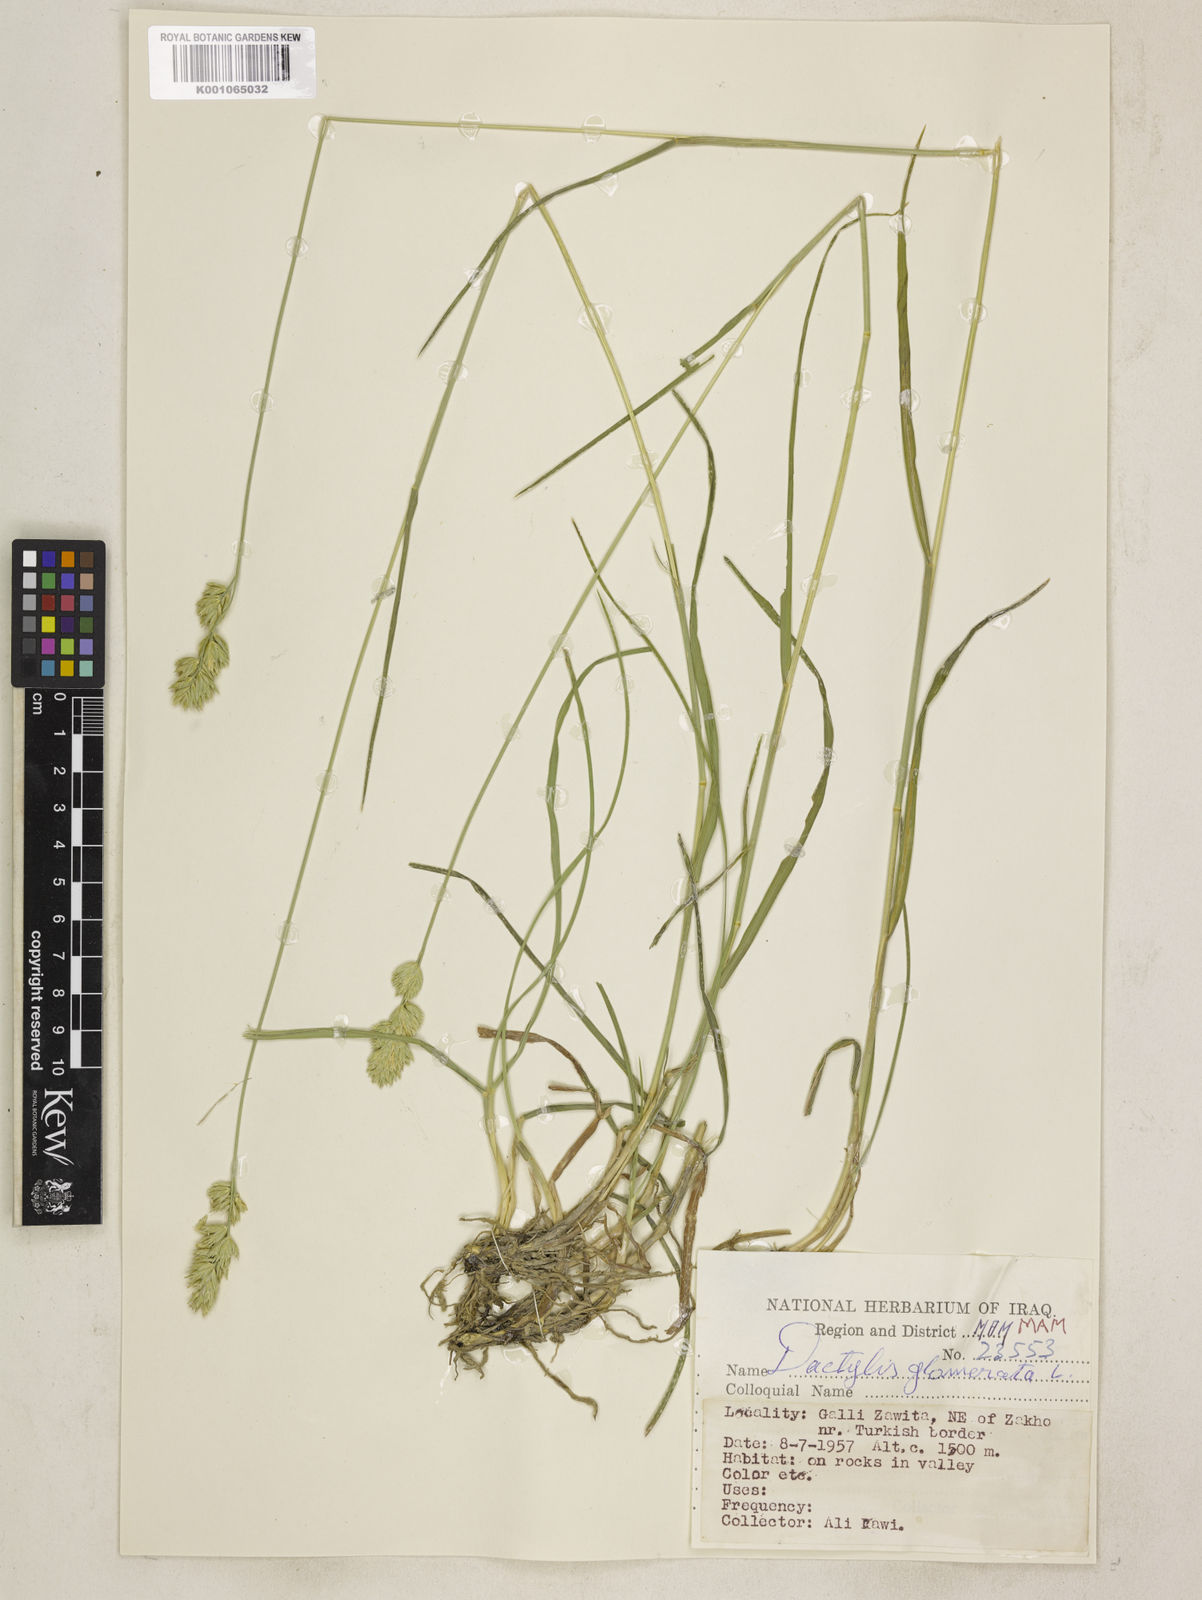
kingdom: Plantae
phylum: Tracheophyta
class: Liliopsida
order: Poales
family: Poaceae
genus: Dactylis
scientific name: Dactylis glomerata
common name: Orchardgrass
